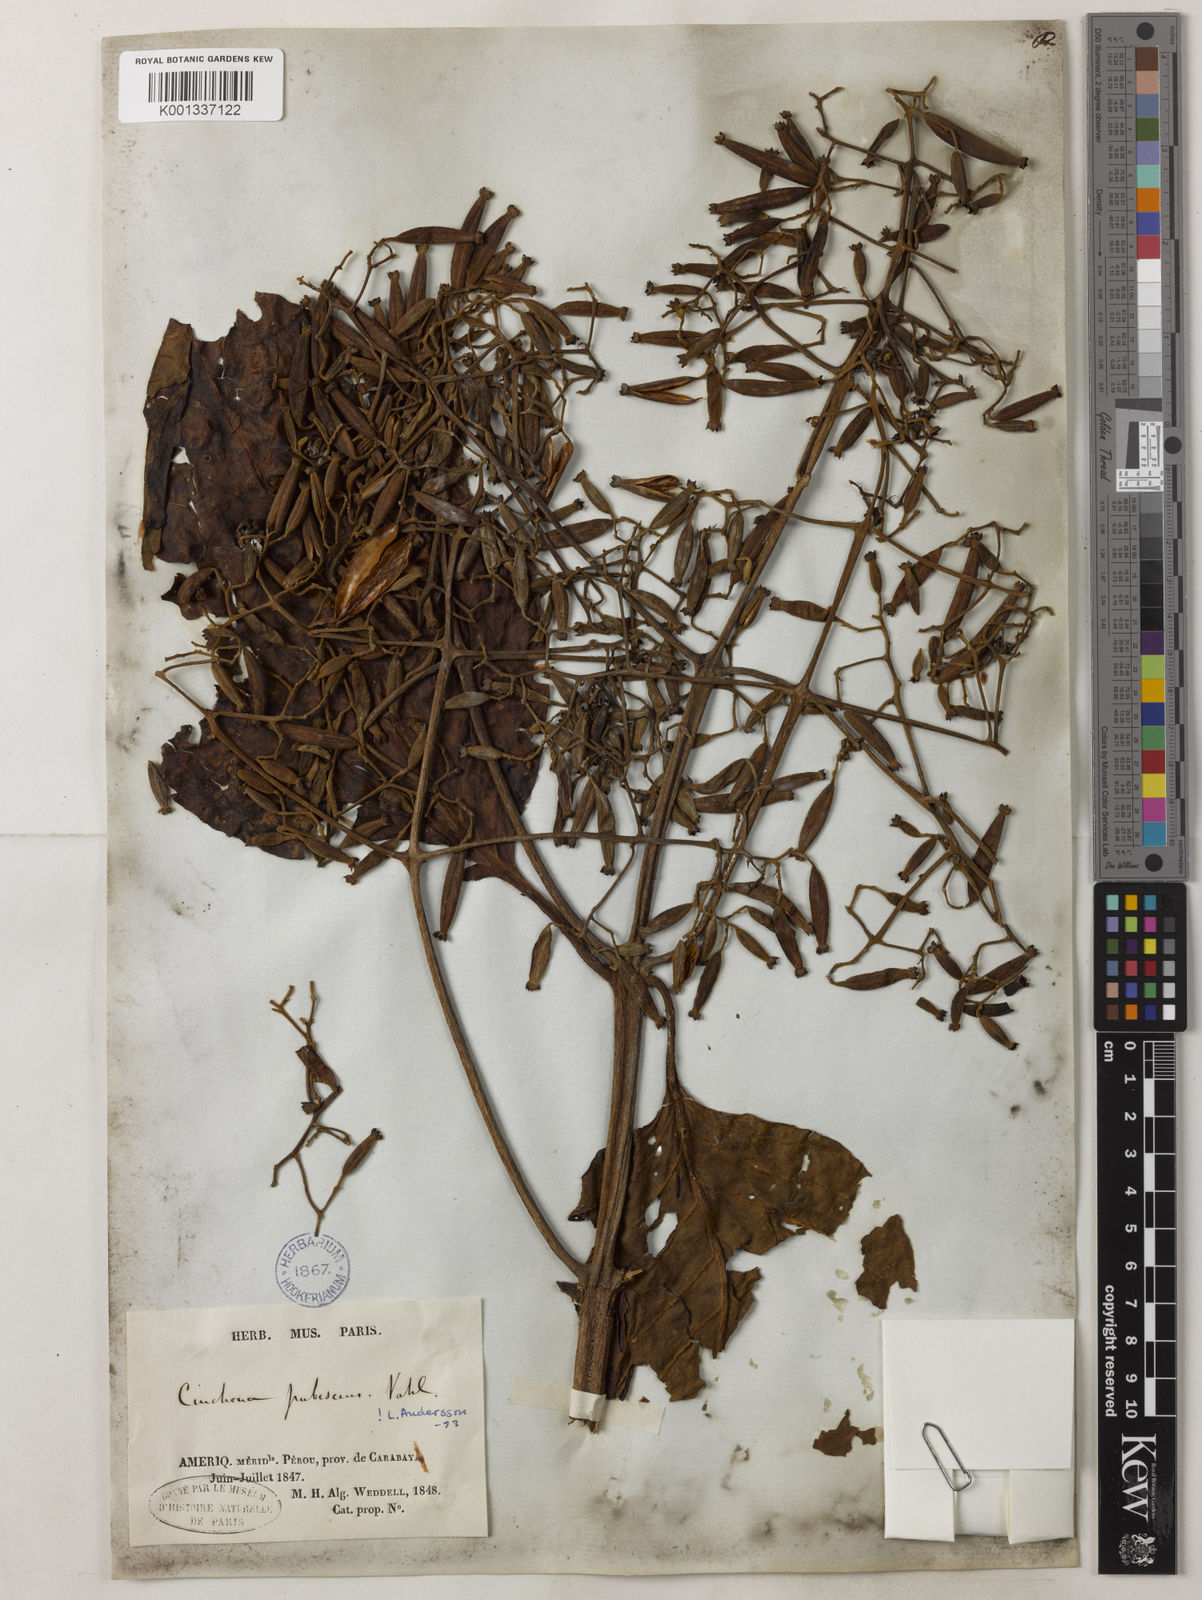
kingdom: Plantae
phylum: Tracheophyta
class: Magnoliopsida
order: Gentianales
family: Rubiaceae
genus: Cinchona
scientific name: Cinchona pubescens
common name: Quinine
